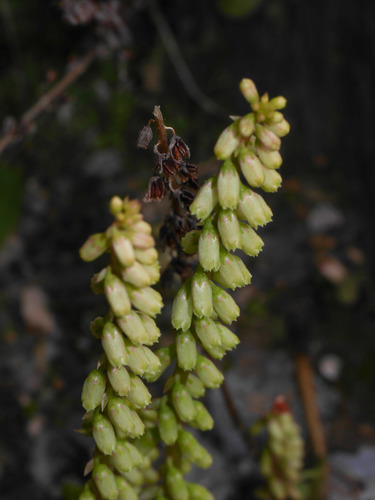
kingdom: Plantae
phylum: Tracheophyta
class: Magnoliopsida
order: Saxifragales
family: Crassulaceae
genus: Umbilicus
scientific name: Umbilicus rupestris
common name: Navelwort
